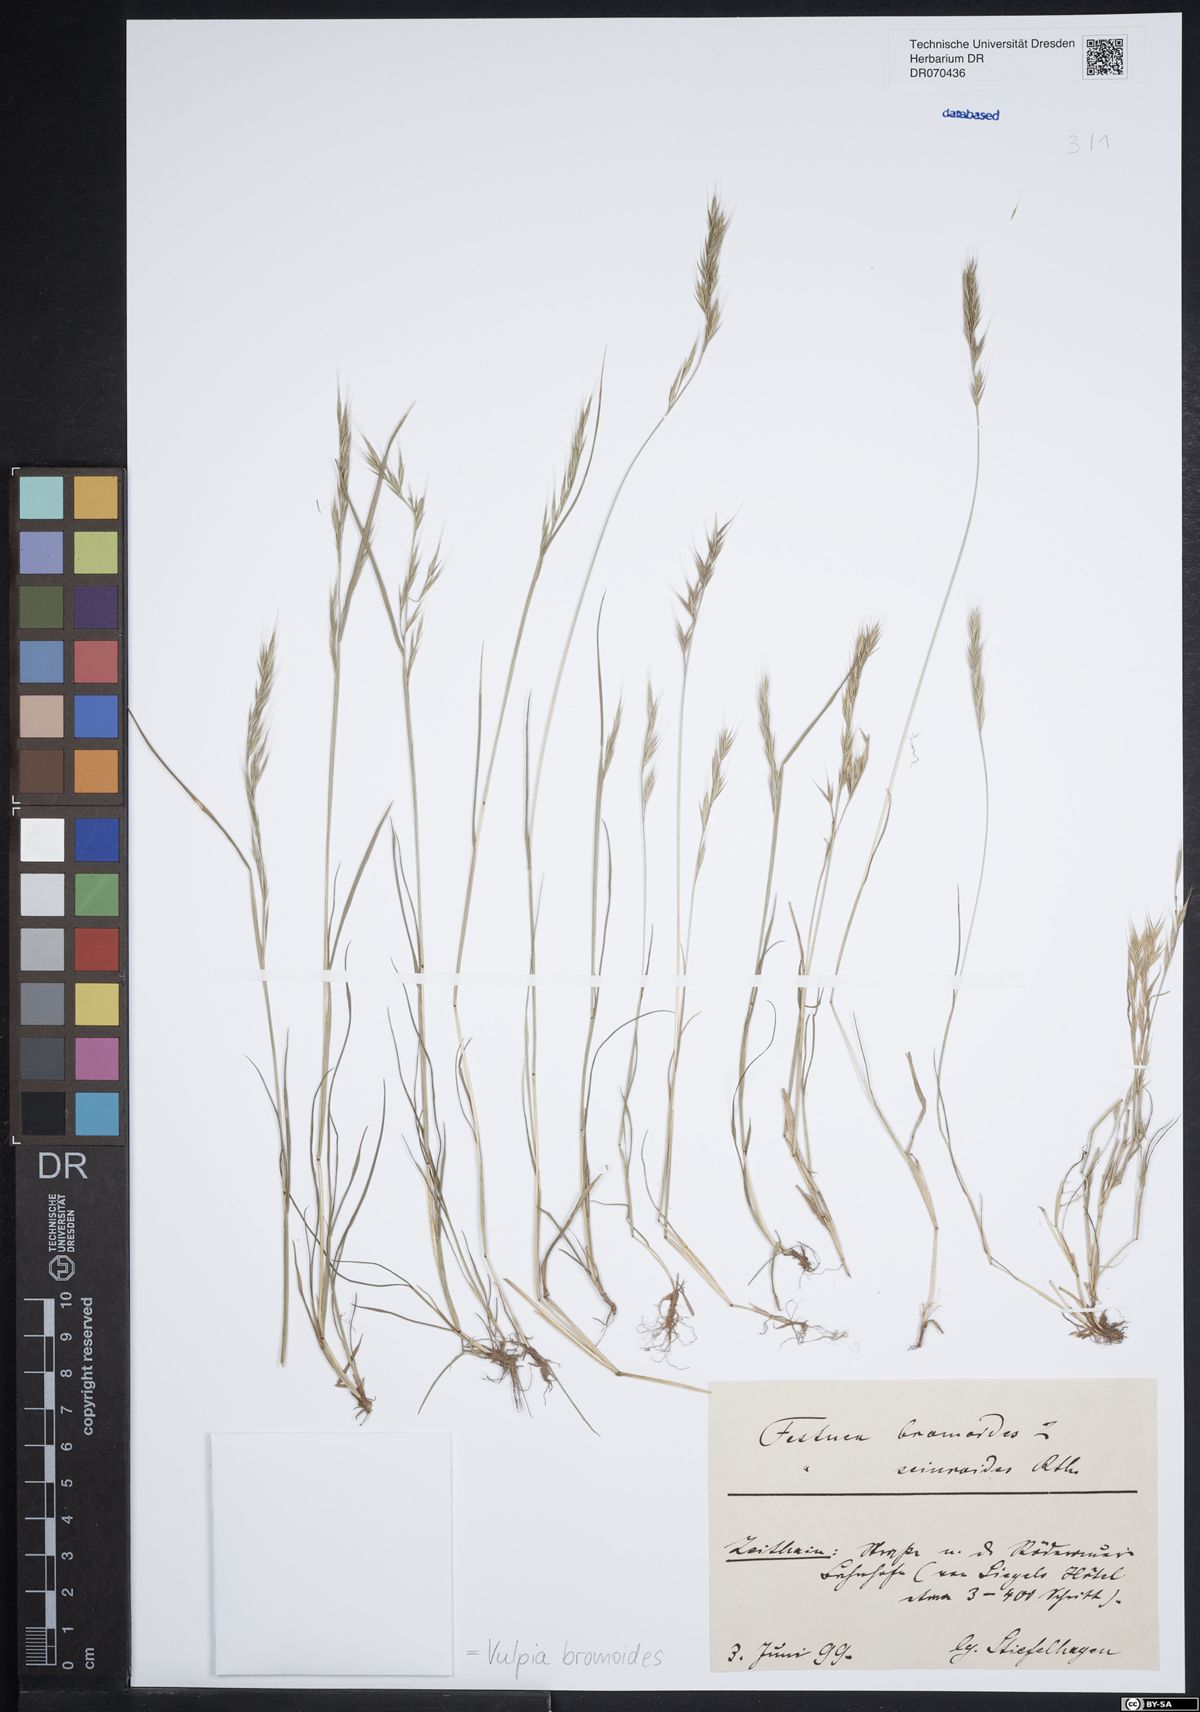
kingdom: Plantae
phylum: Tracheophyta
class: Liliopsida
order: Poales
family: Poaceae
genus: Festuca
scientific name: Festuca bromoides
